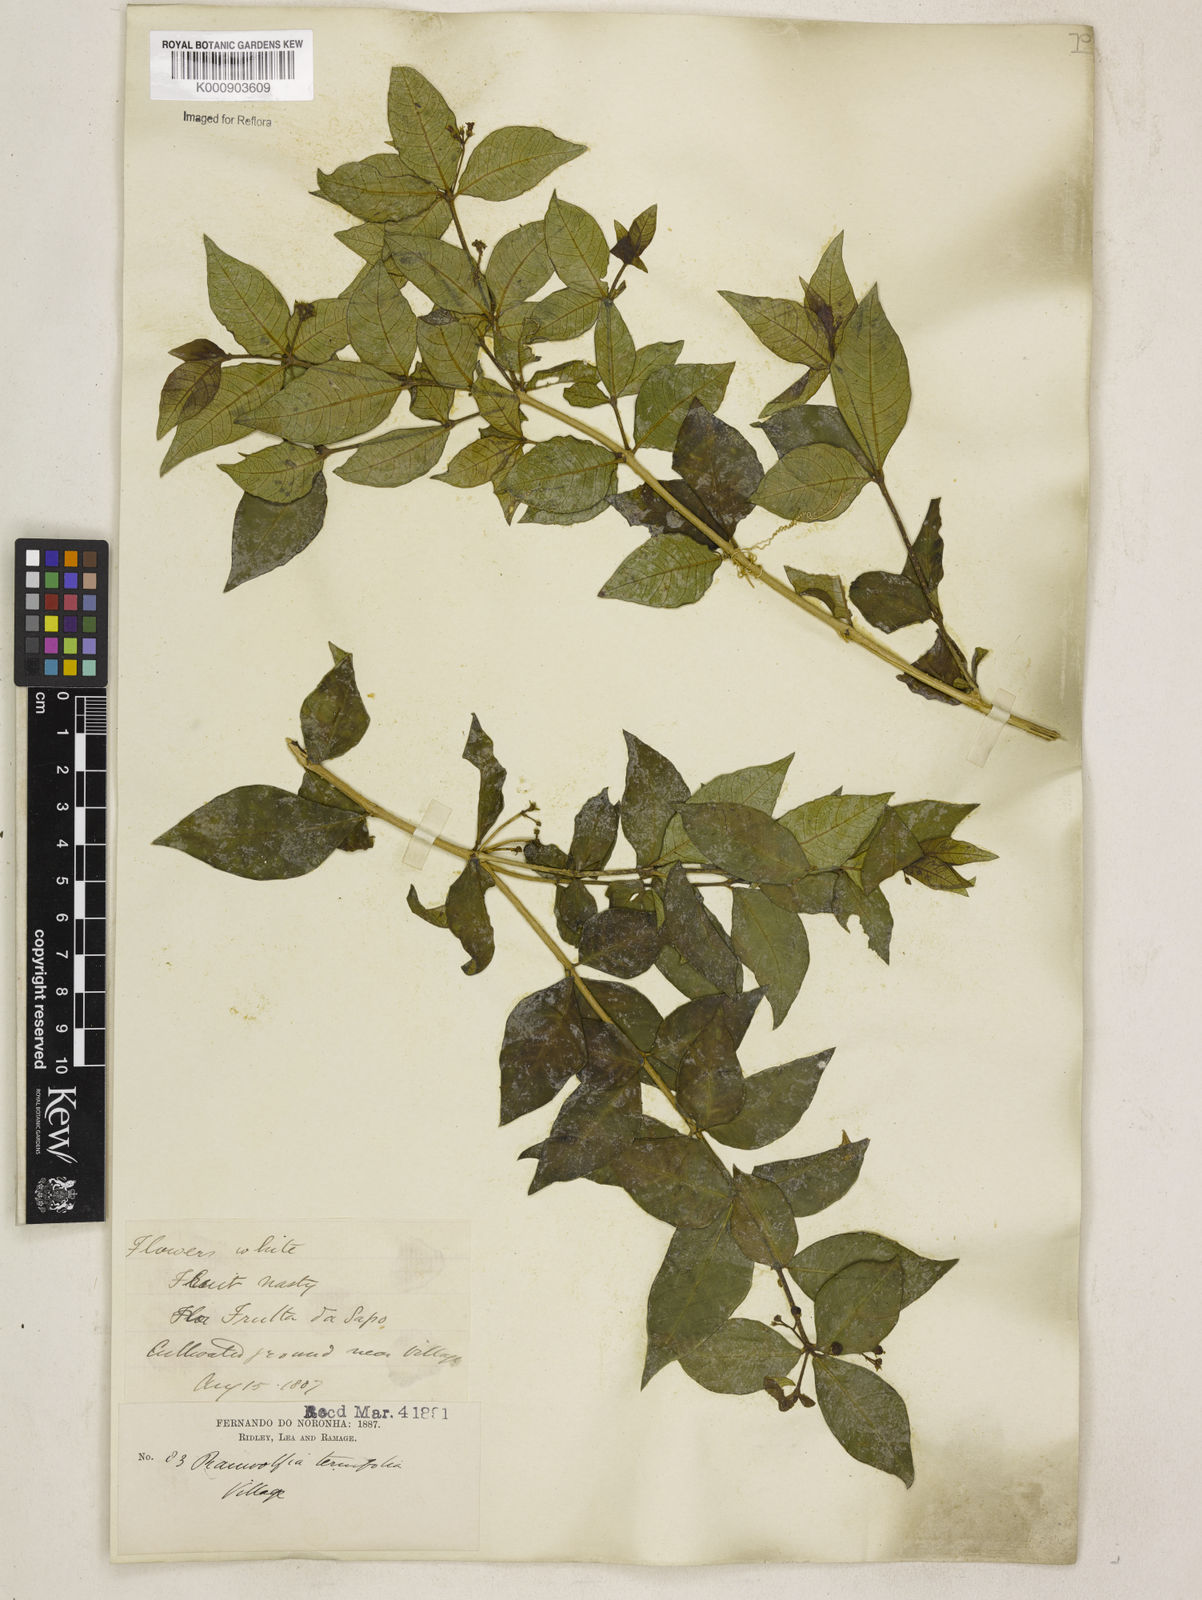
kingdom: Plantae
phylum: Tracheophyta
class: Magnoliopsida
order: Gentianales
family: Apocynaceae
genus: Rauvolfia
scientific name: Rauvolfia
